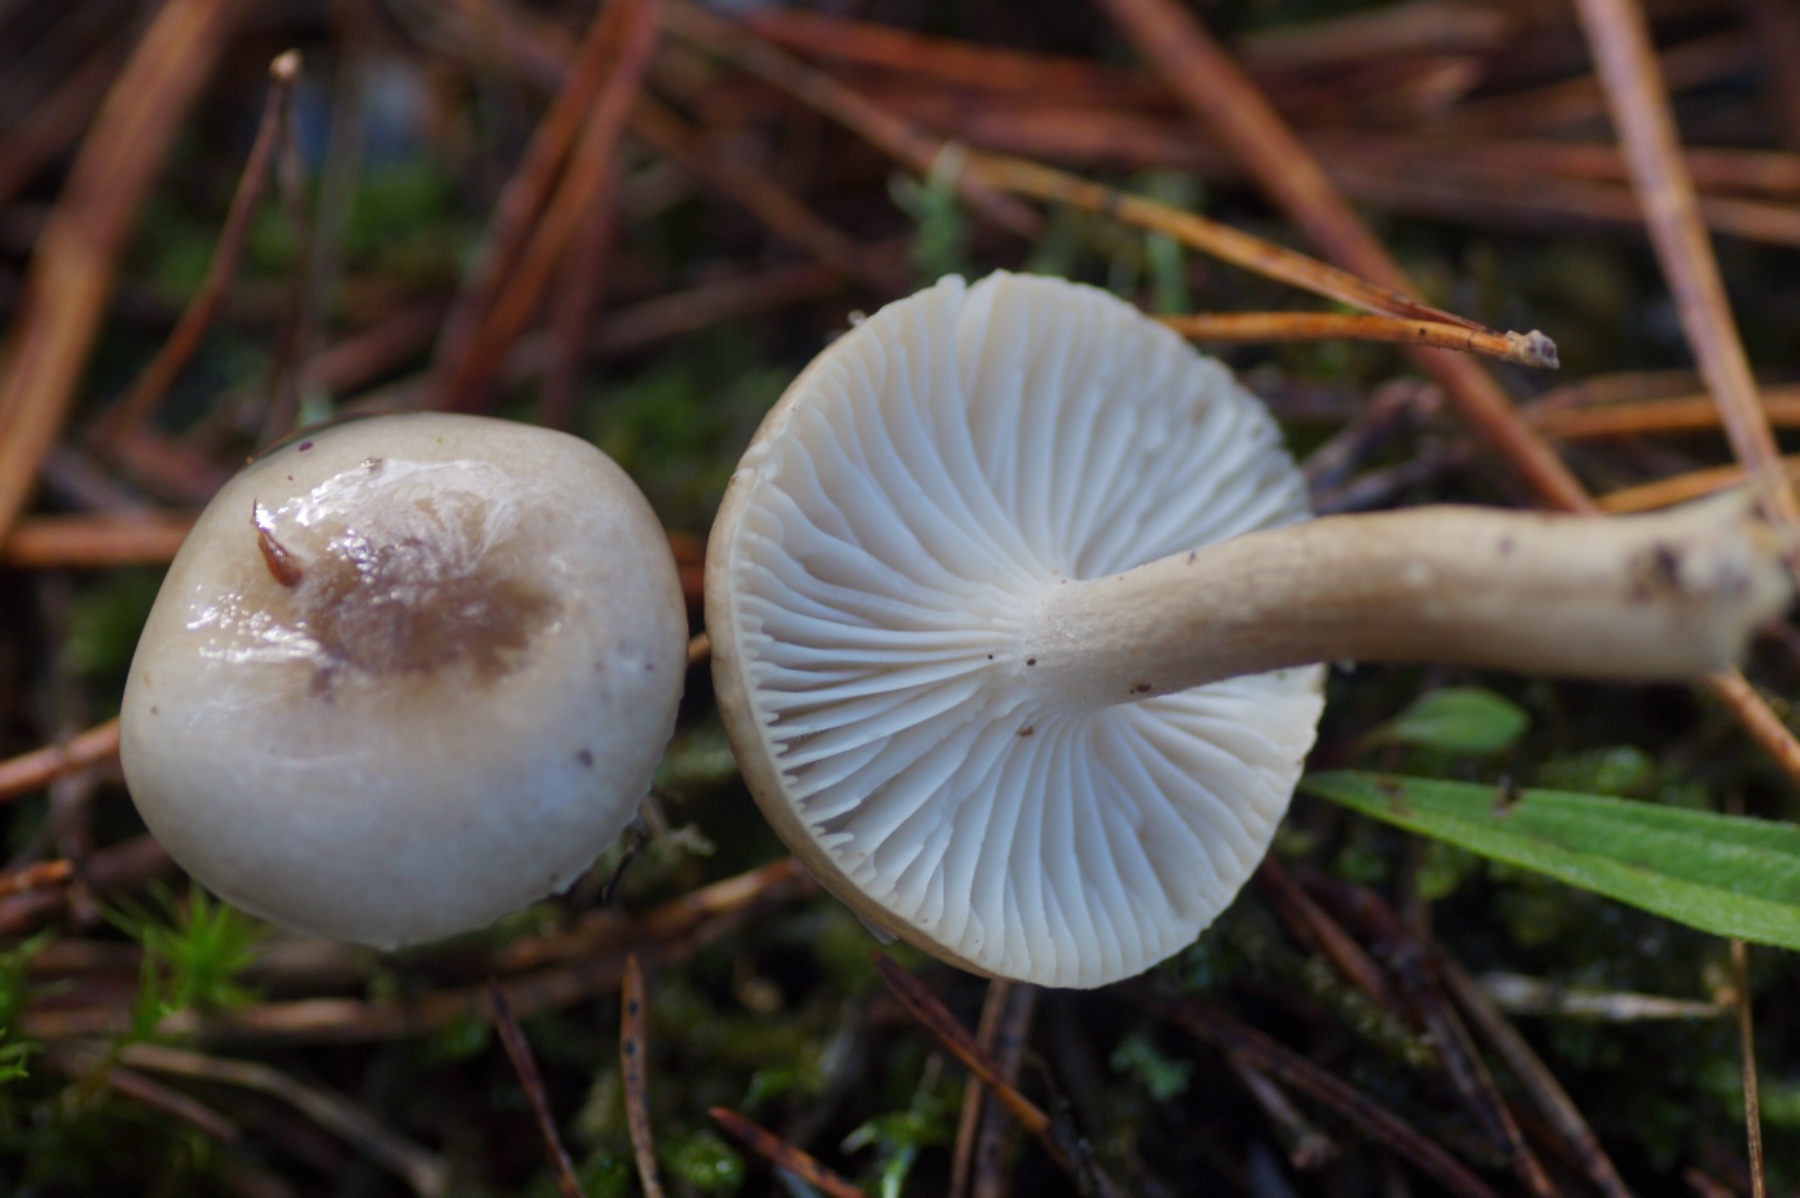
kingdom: Fungi
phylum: Basidiomycota
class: Agaricomycetes
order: Agaricales
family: Hygrophoraceae
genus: Hygrophorus
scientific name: Hygrophorus suaveolens
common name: parfumeret sneglehat
